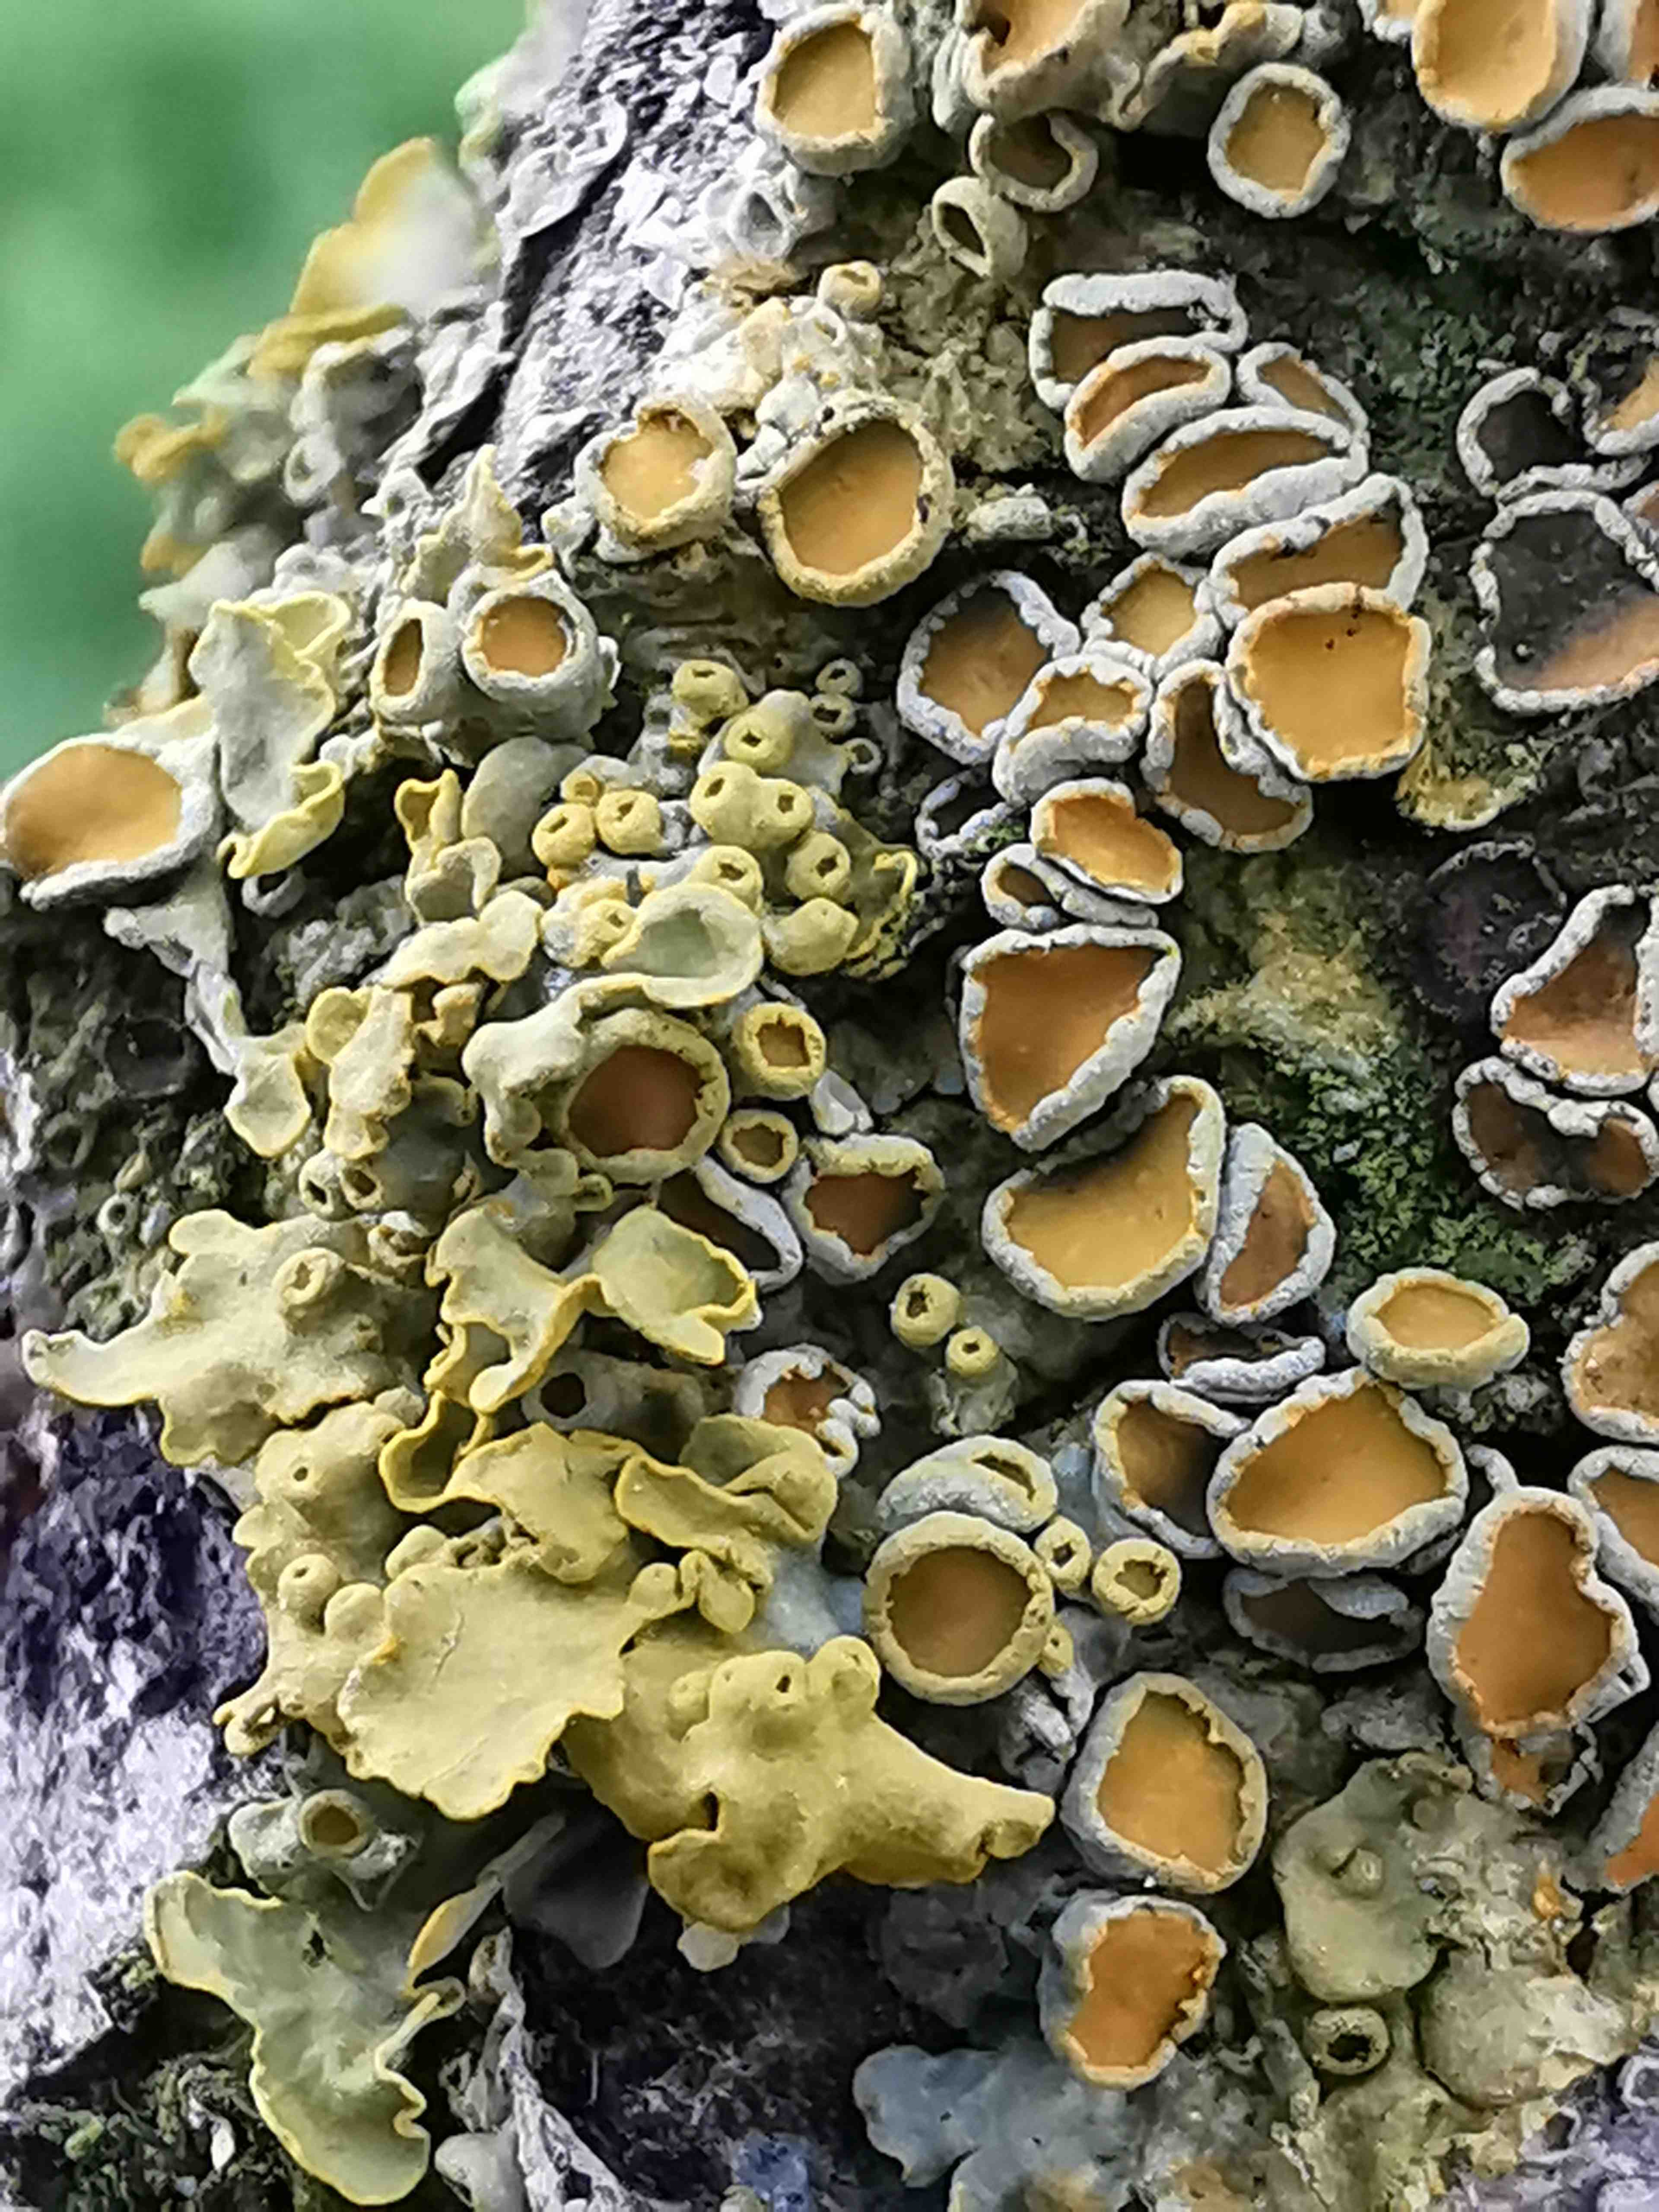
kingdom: Fungi
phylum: Ascomycota
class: Lecanoromycetes
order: Teloschistales
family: Teloschistaceae
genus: Xanthoria
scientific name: Xanthoria parietina
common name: almindelig væggelav
